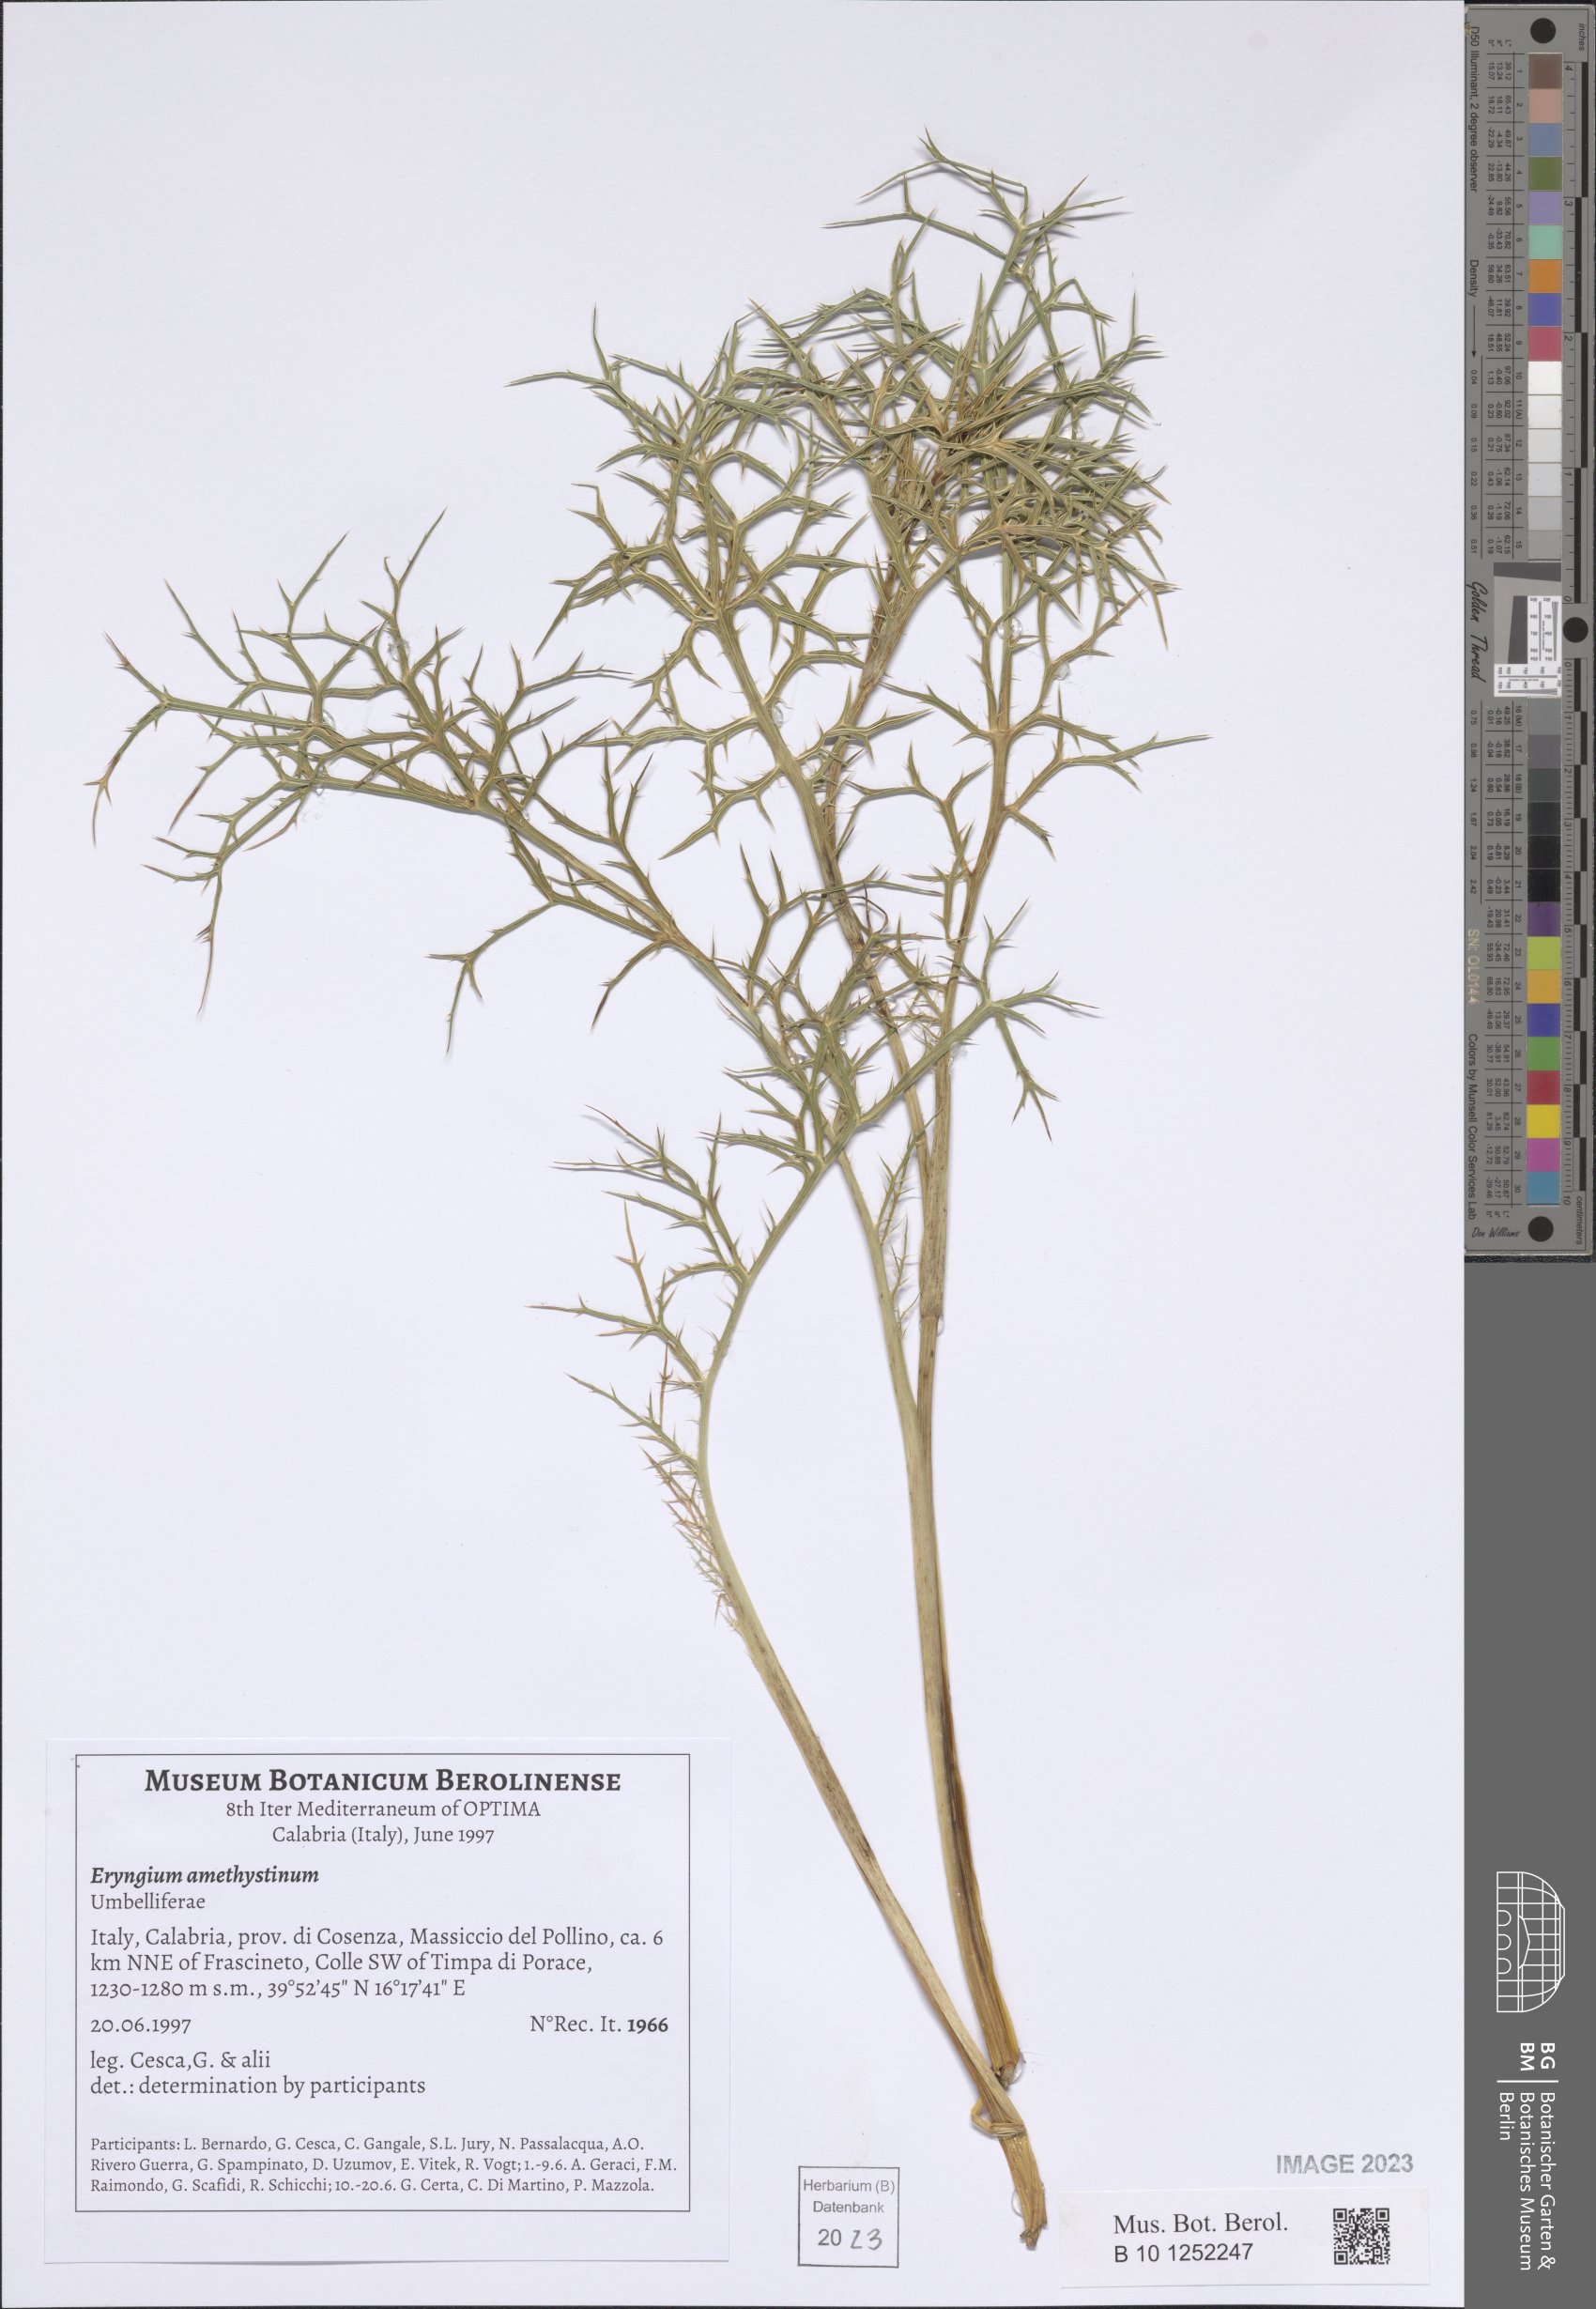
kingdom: Plantae
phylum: Tracheophyta
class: Magnoliopsida
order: Apiales
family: Apiaceae
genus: Eryngium
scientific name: Eryngium amethystinum
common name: Amethyst eryngo
